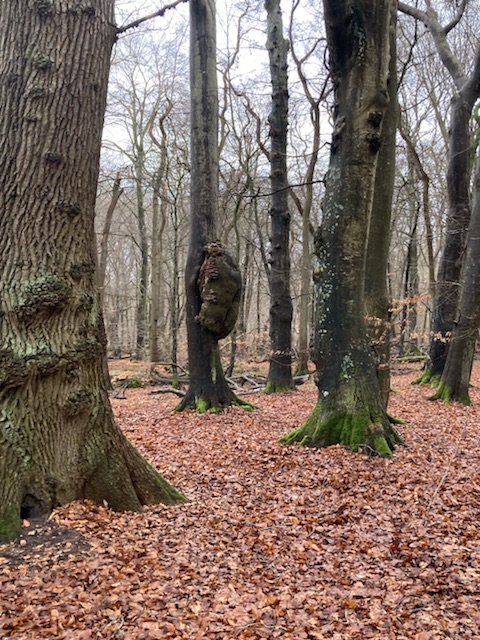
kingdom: Fungi
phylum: Basidiomycota
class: Agaricomycetes
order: Agaricales
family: Pleurotaceae
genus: Pleurotus
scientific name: Pleurotus ostreatus
